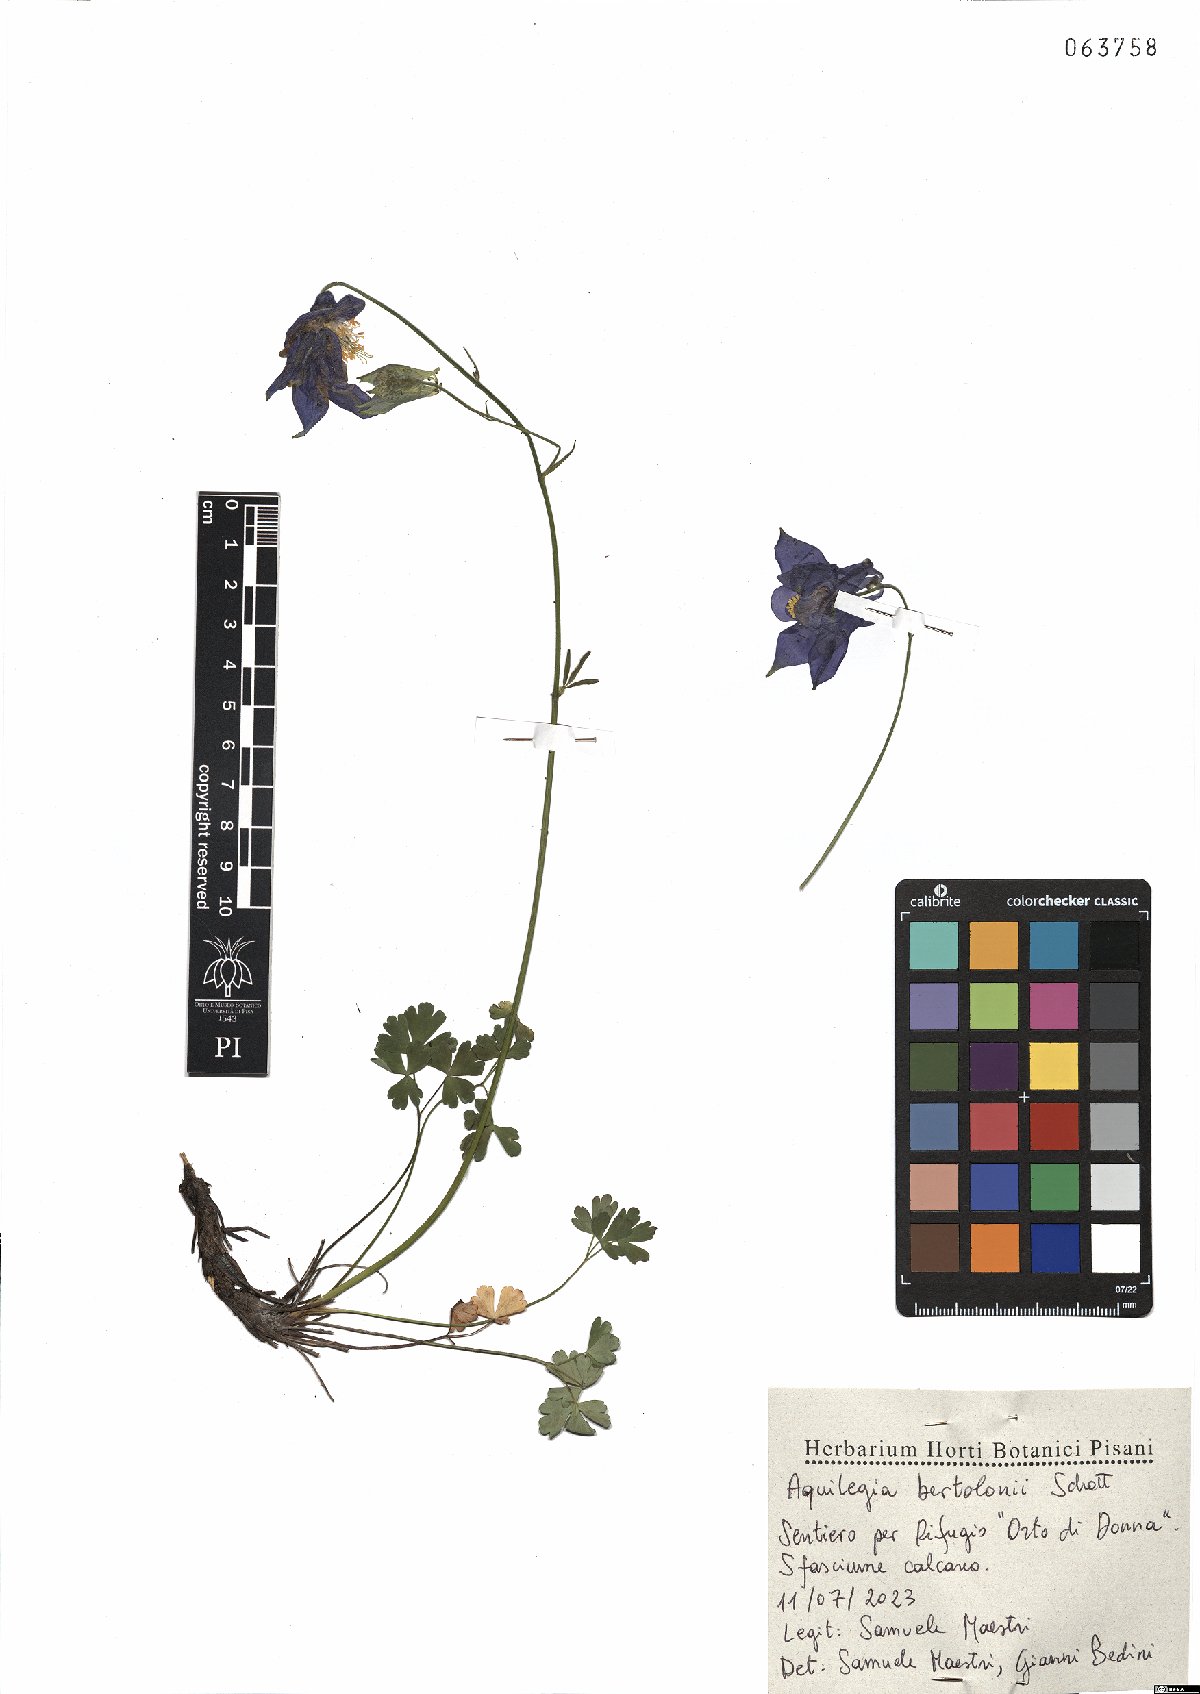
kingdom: Plantae
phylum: Tracheophyta
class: Magnoliopsida
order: Ranunculales
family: Ranunculaceae
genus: Aquilegia
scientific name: Aquilegia bertolonii
